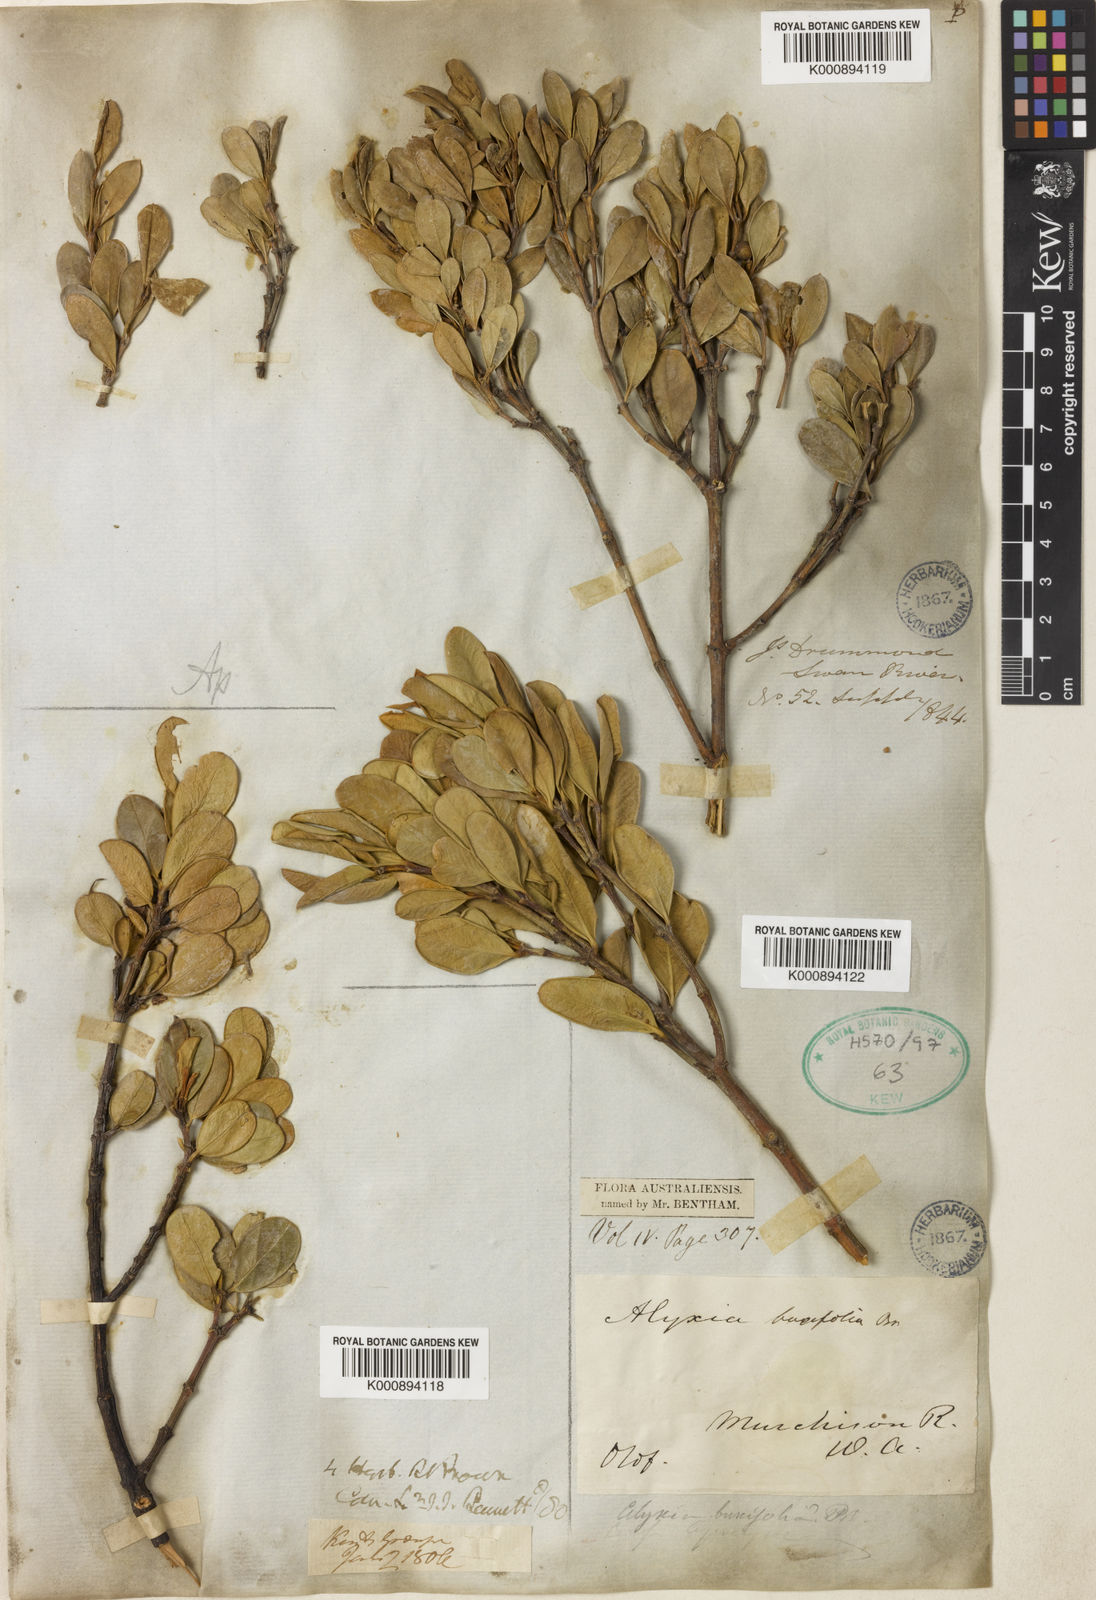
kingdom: Plantae
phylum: Tracheophyta
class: Magnoliopsida
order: Gentianales
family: Apocynaceae
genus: Alyxia
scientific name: Alyxia buxifolia
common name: Dysentery-bush
